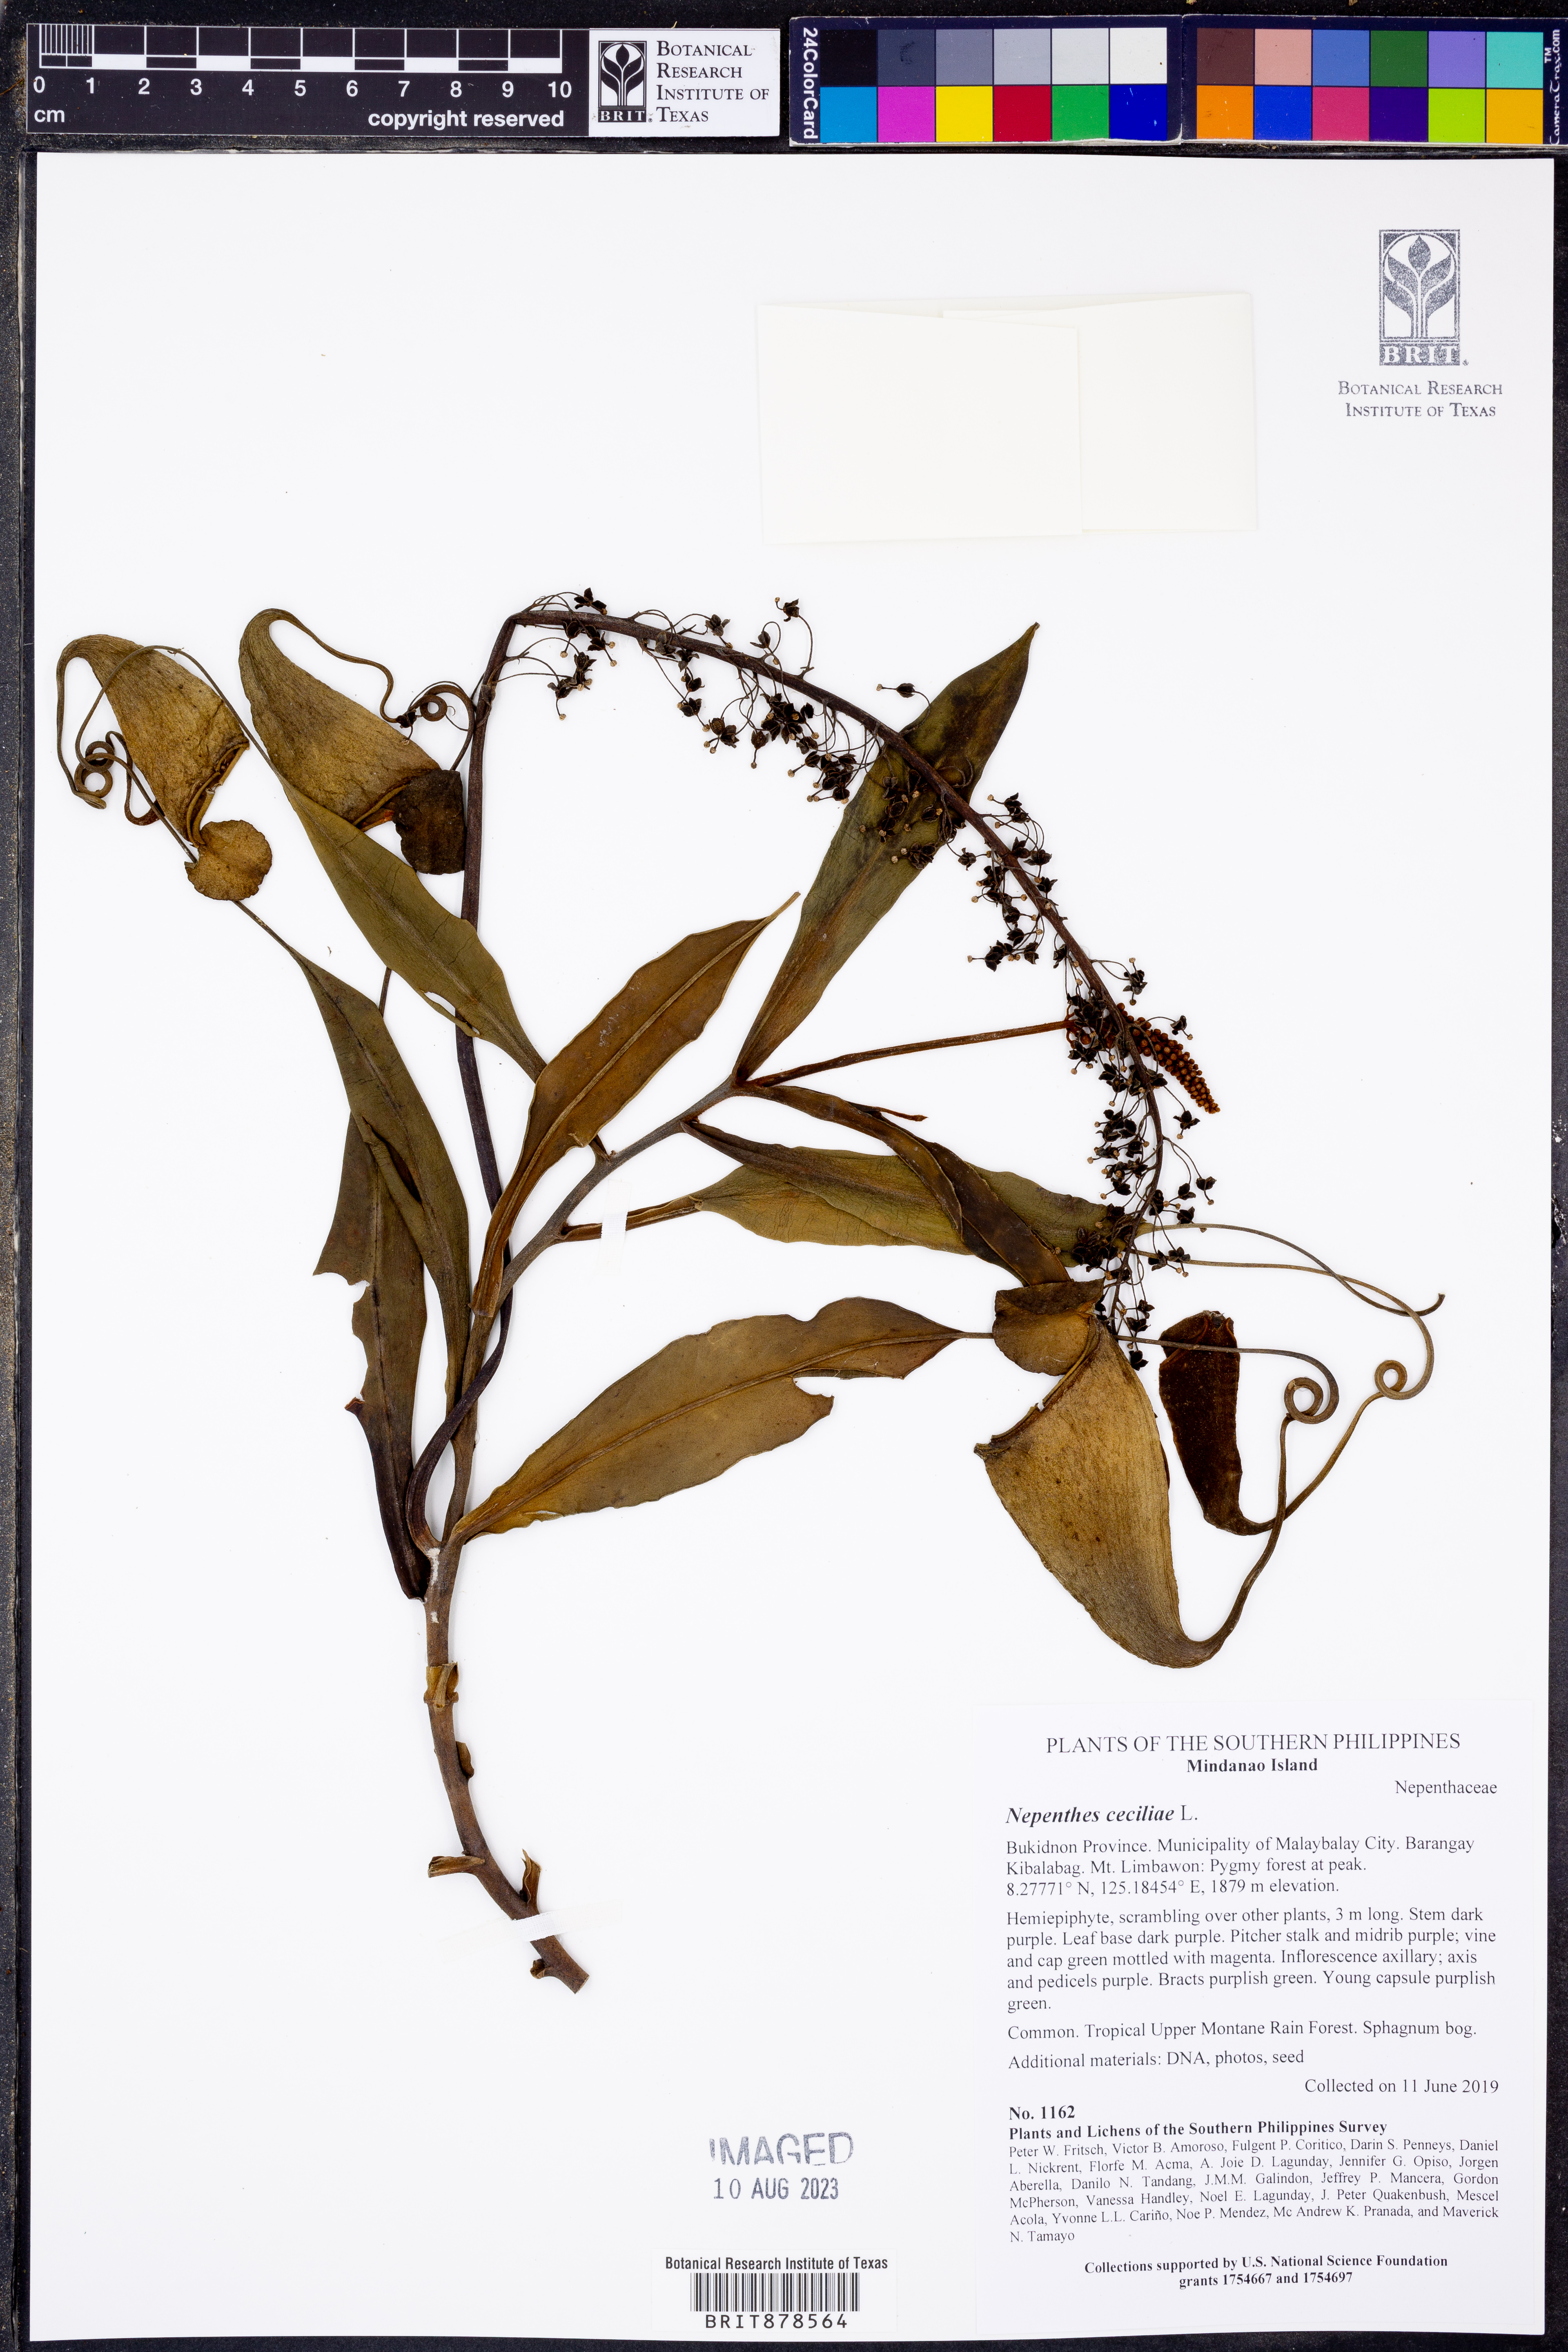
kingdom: Plantae
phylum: Tracheophyta
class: Magnoliopsida
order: Caryophyllales
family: Nepenthaceae
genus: Nepenthes
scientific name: Nepenthes ceciliae
